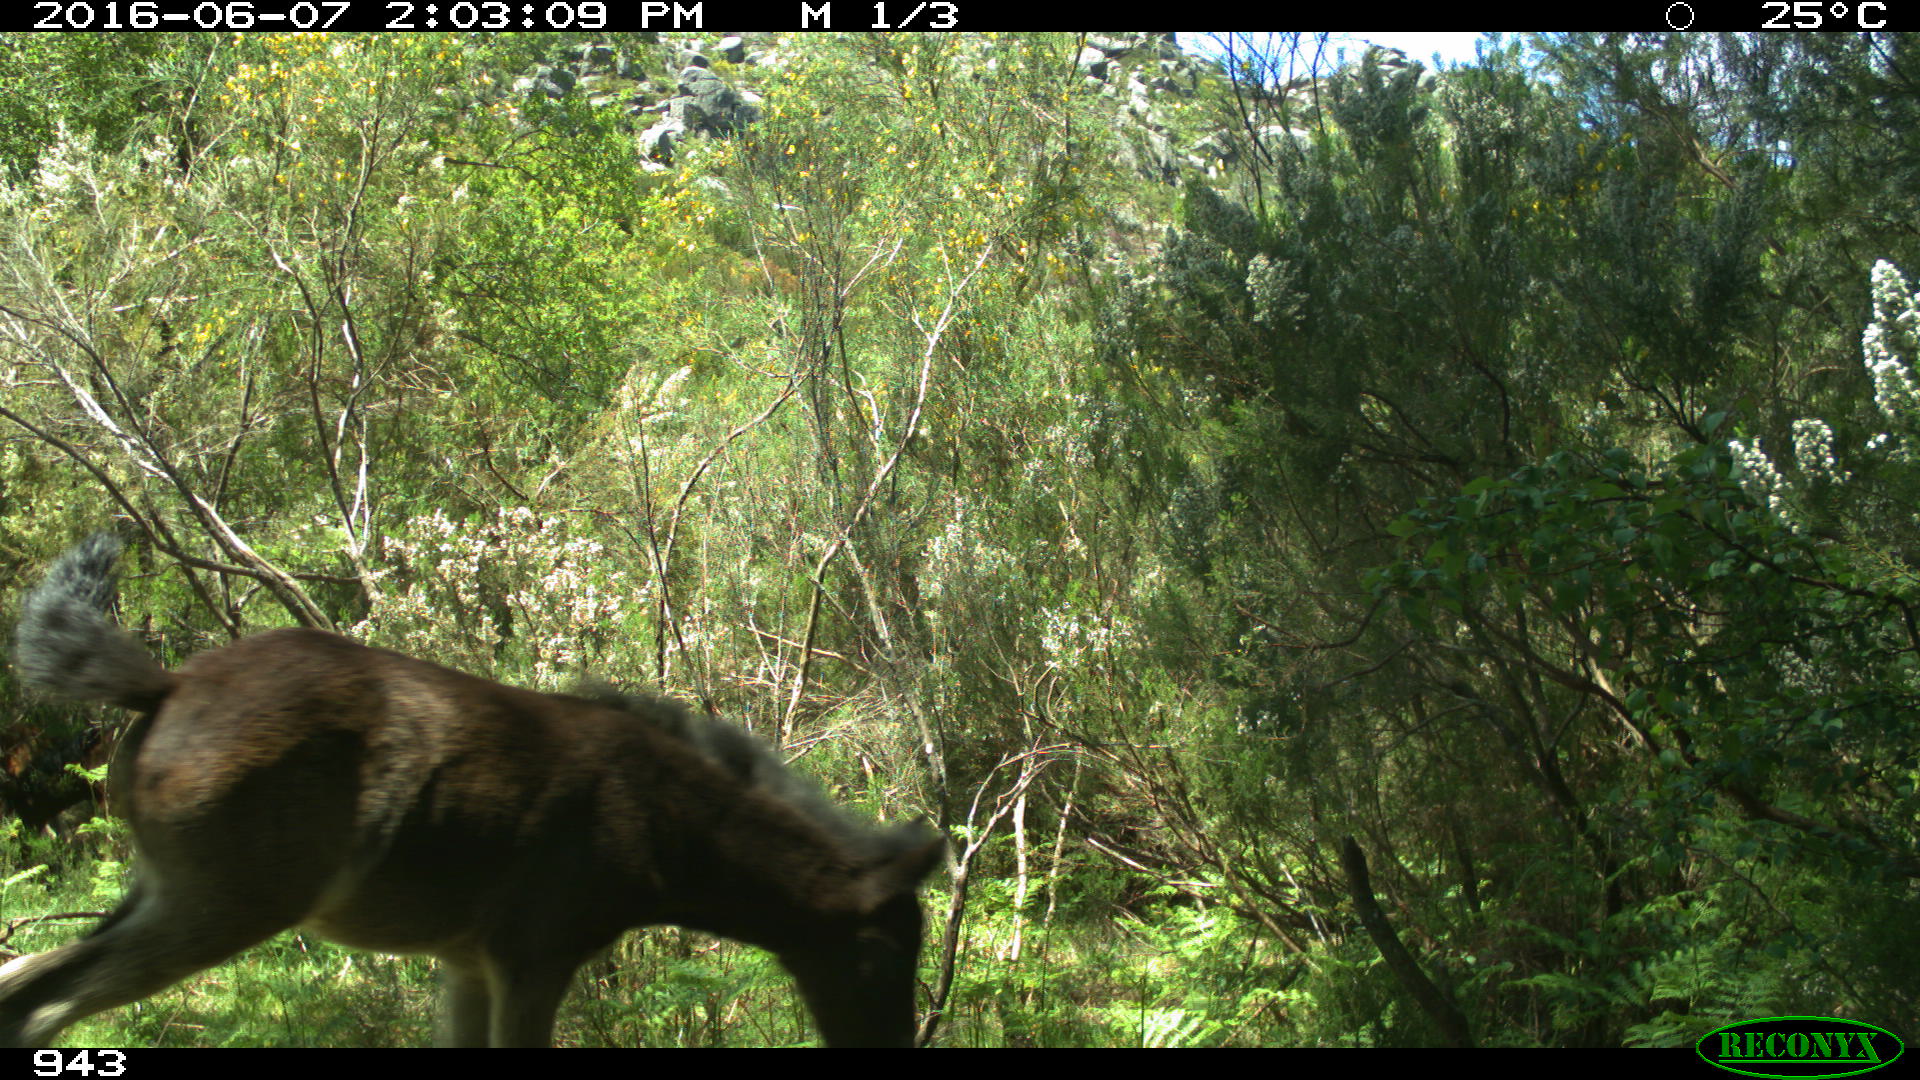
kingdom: Animalia
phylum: Chordata
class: Mammalia
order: Perissodactyla
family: Equidae
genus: Equus
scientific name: Equus caballus
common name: Horse
